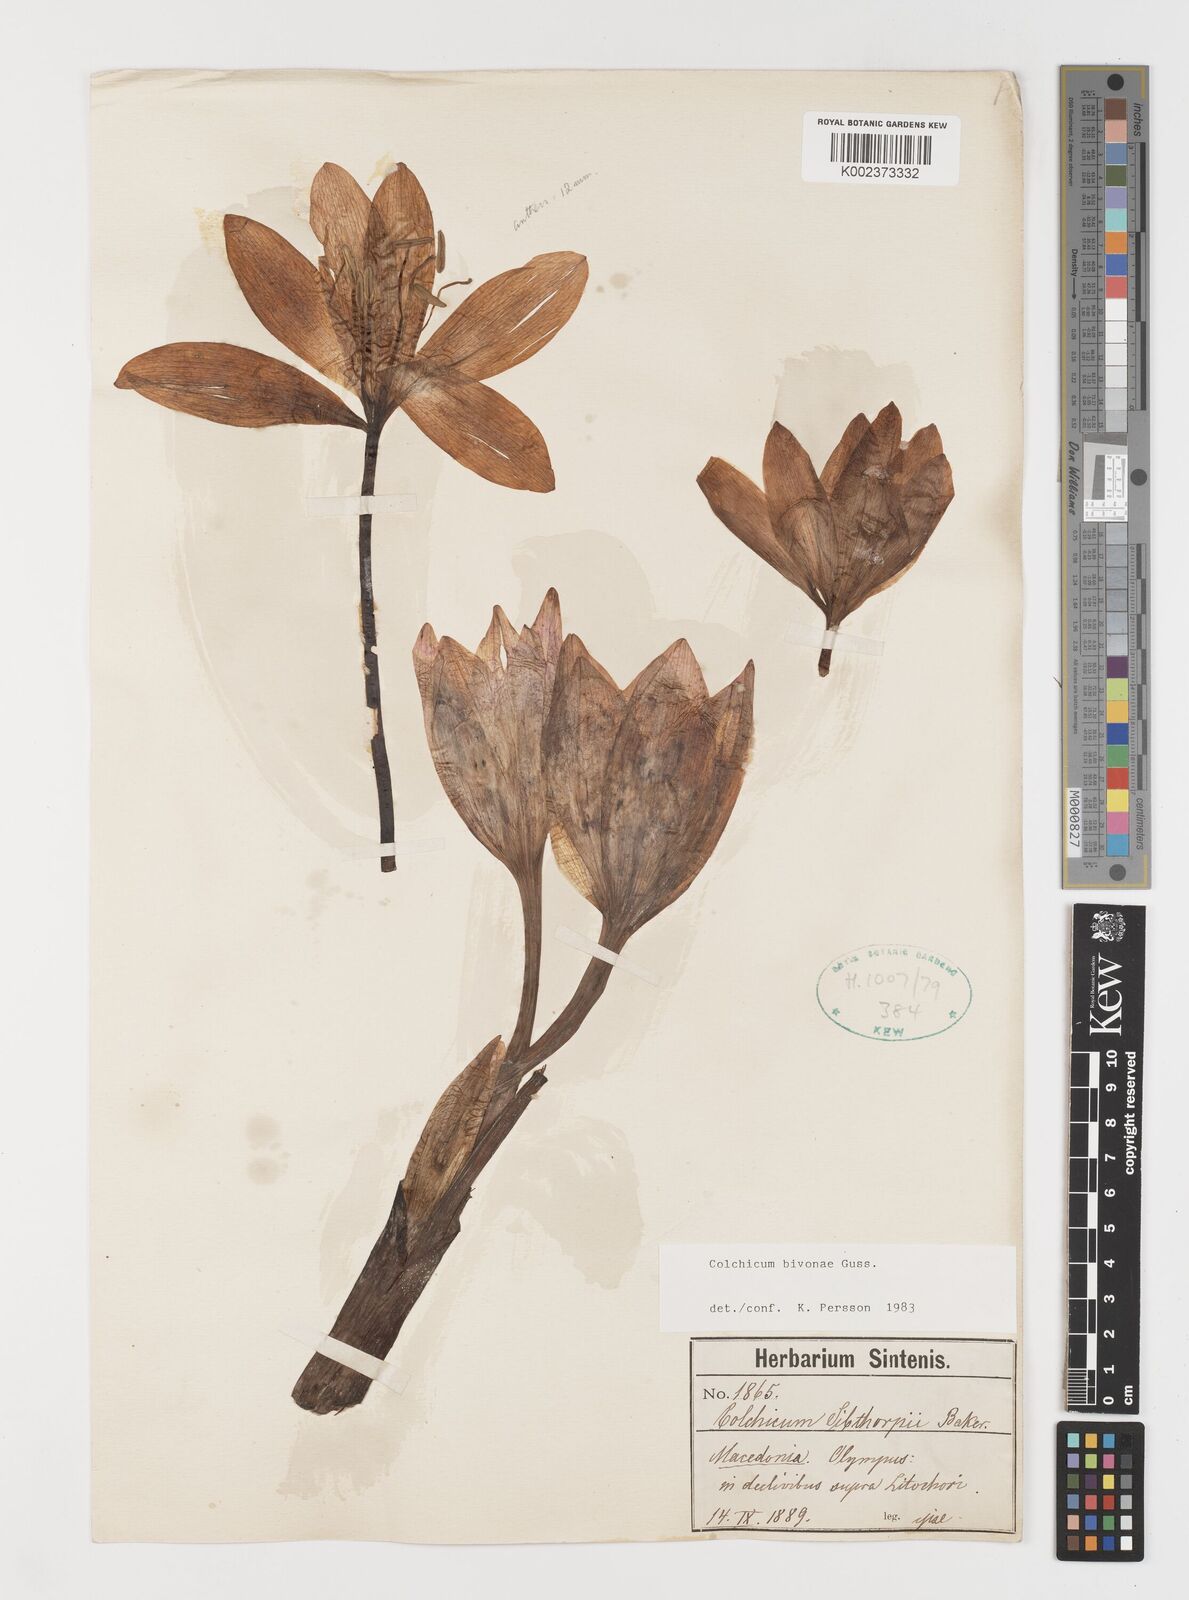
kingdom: Plantae
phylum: Tracheophyta
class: Liliopsida
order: Liliales
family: Colchicaceae
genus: Colchicum
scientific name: Colchicum bivonae
